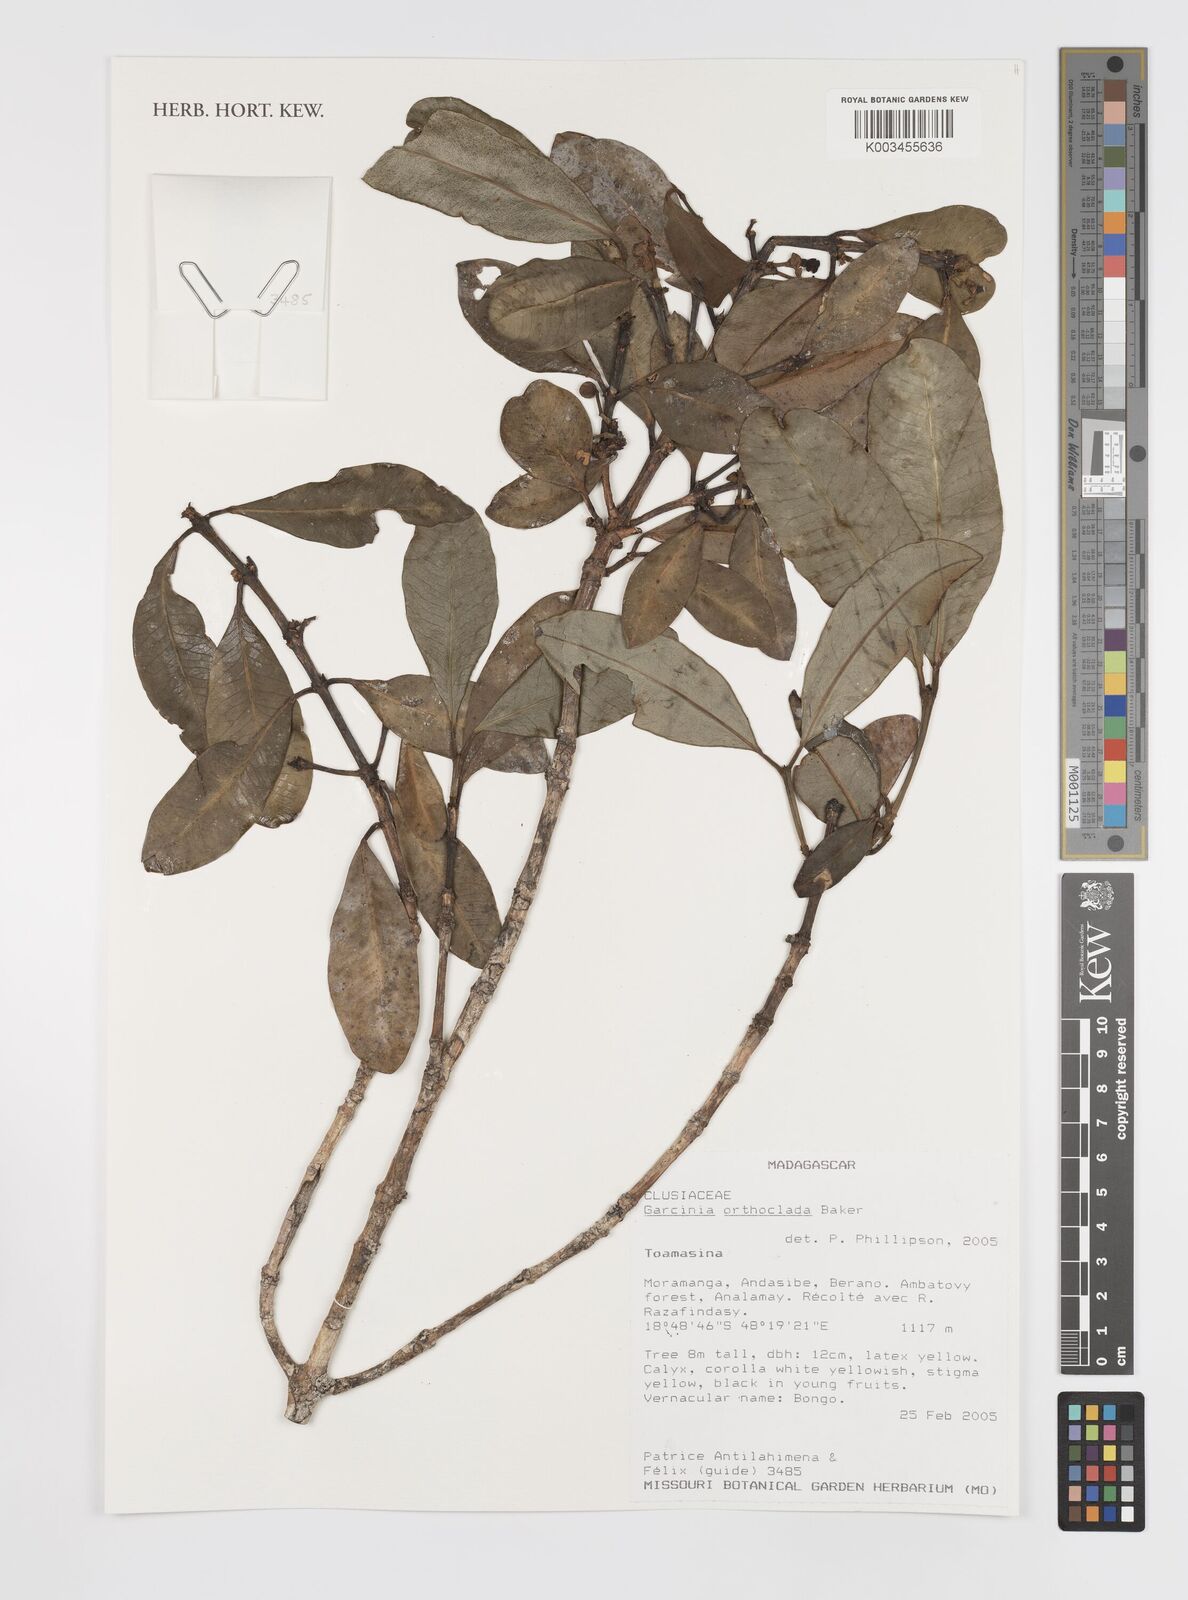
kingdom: Plantae
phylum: Tracheophyta
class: Magnoliopsida
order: Malpighiales
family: Clusiaceae
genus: Garcinia
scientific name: Garcinia orthoclada
